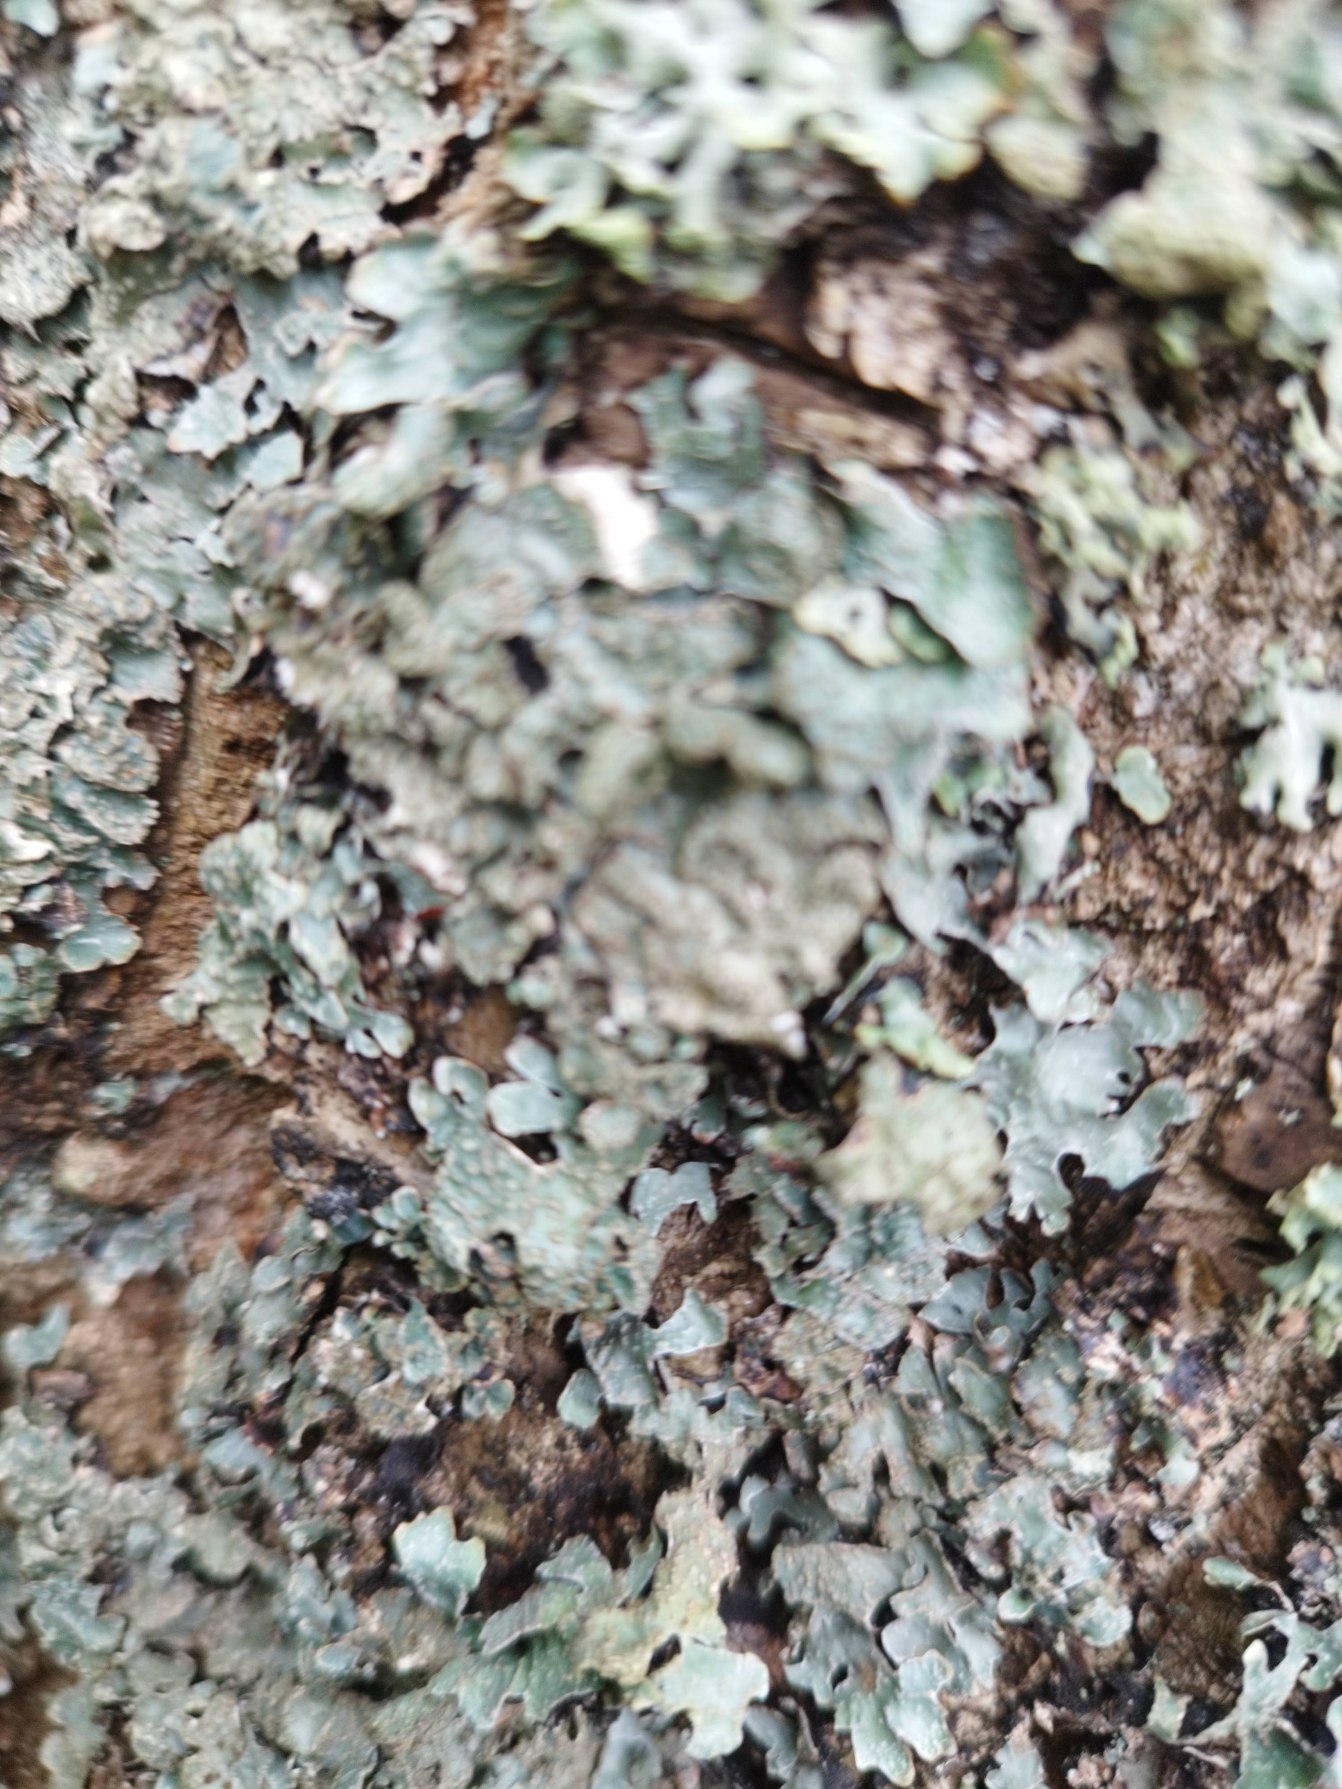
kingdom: Fungi
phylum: Ascomycota
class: Lecanoromycetes
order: Lecanorales
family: Parmeliaceae
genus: Parmelia
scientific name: Parmelia sulcata
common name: Rynket skållav
